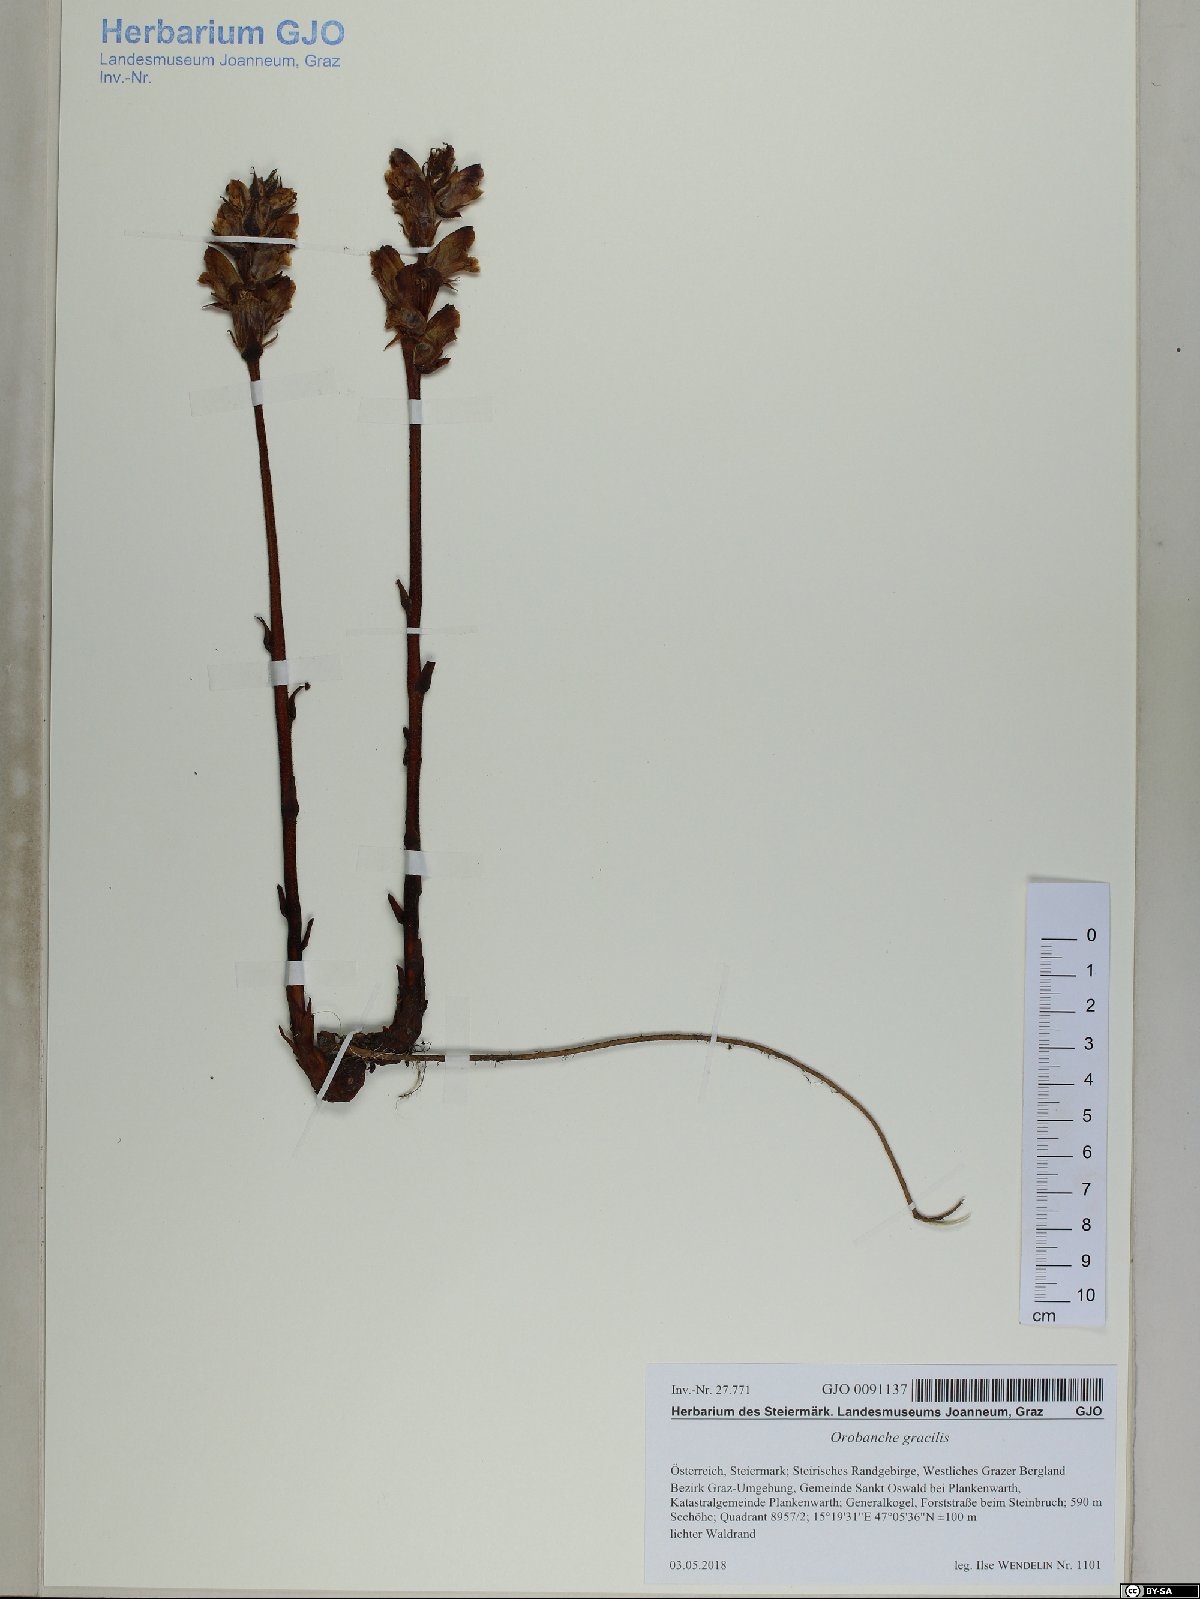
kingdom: Plantae
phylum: Tracheophyta
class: Magnoliopsida
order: Lamiales
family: Orobanchaceae
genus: Orobanche
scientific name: Orobanche gracilis
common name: Slender broomrape
